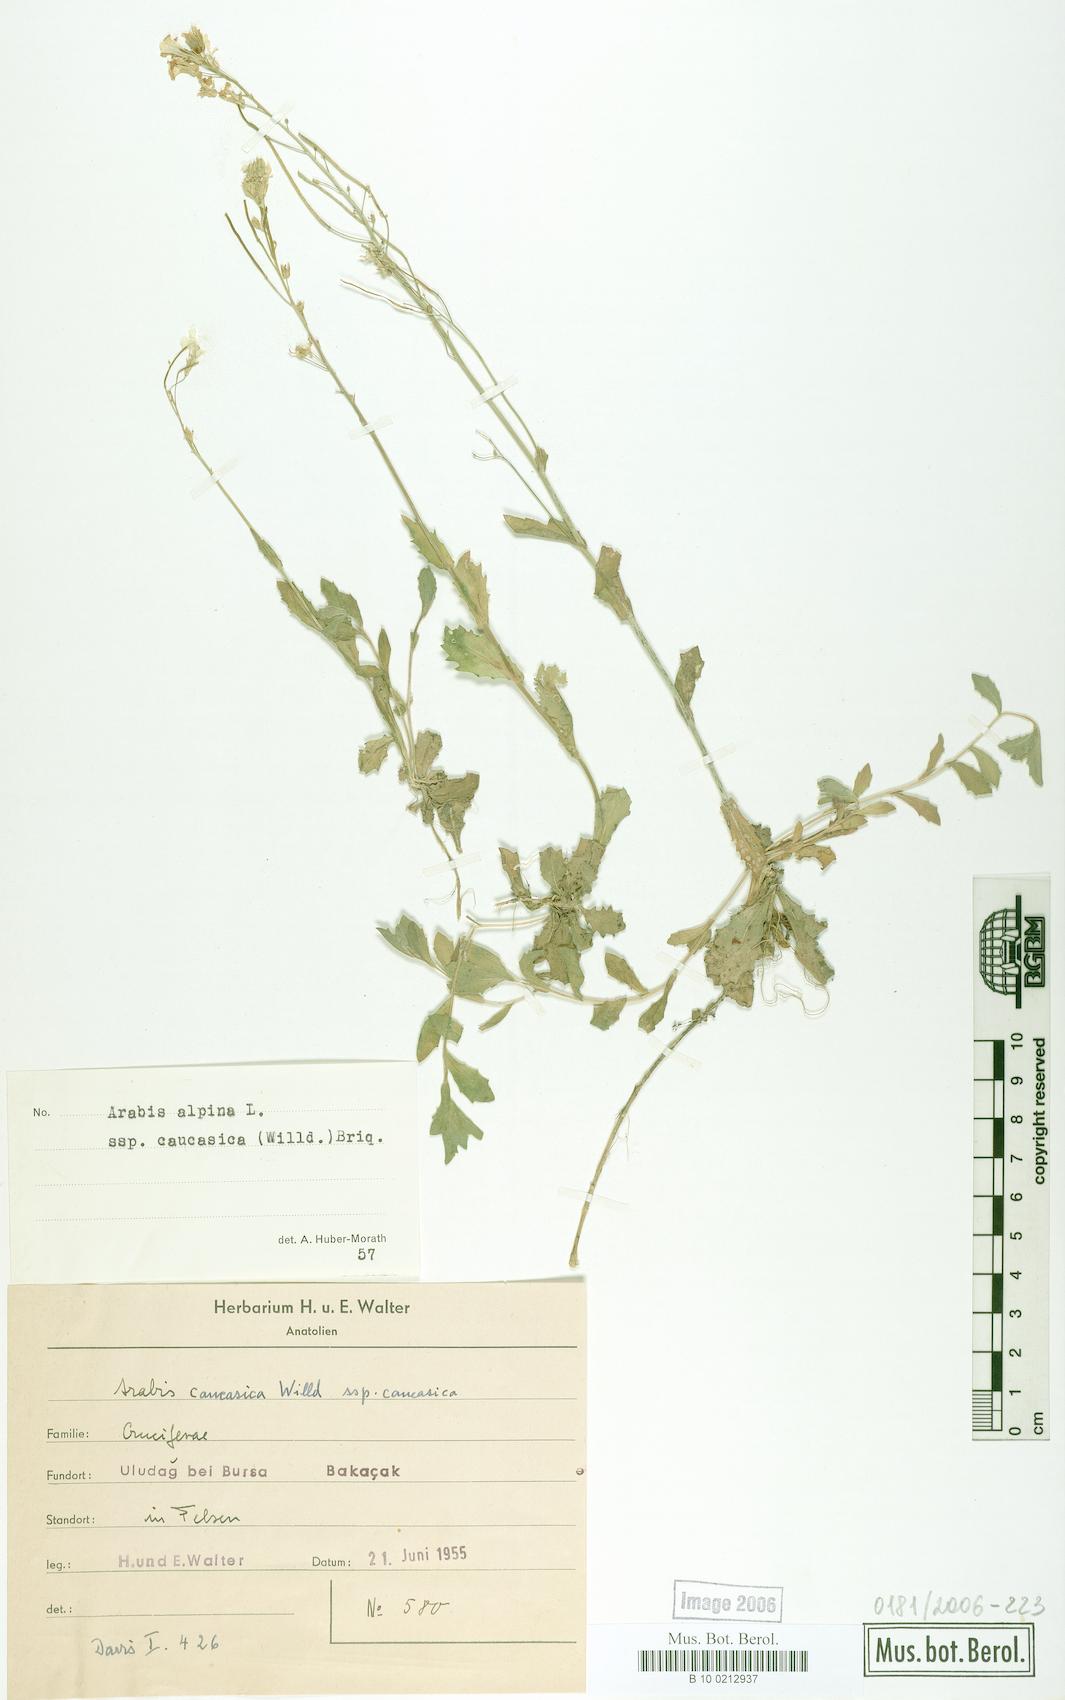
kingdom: Plantae
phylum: Tracheophyta
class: Magnoliopsida
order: Brassicales
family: Brassicaceae
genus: Arabis
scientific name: Arabis caucasica
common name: Gray rockcress
